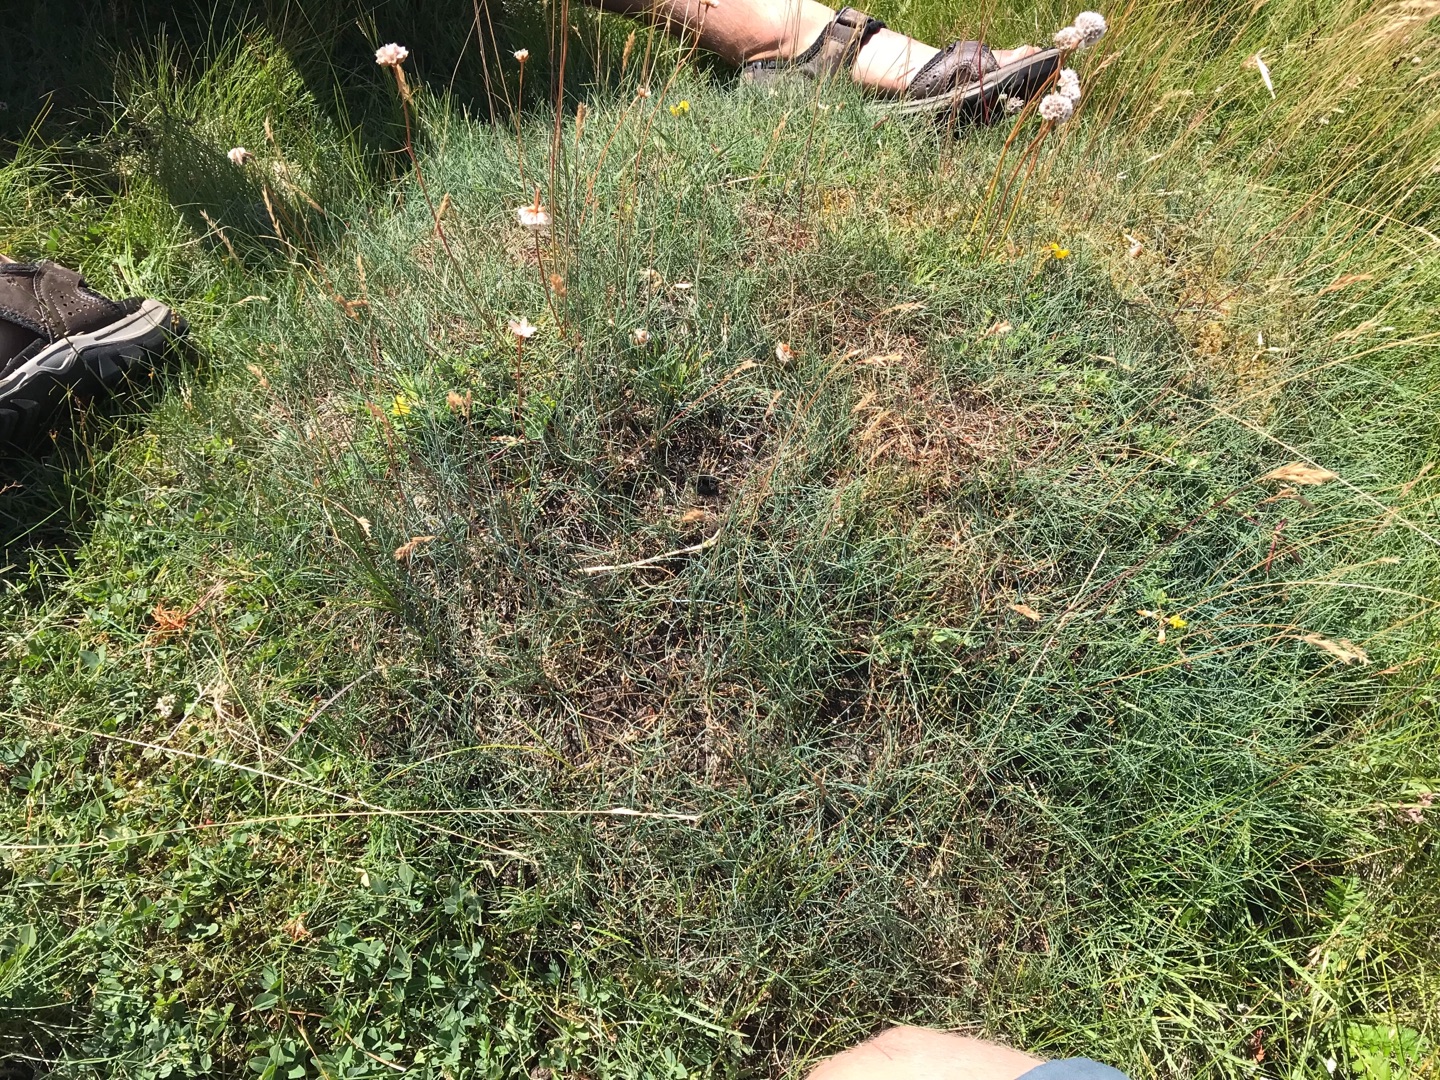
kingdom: Plantae
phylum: Tracheophyta
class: Liliopsida
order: Poales
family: Poaceae
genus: Festuca
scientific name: Festuca rubra
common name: Rød svingel
